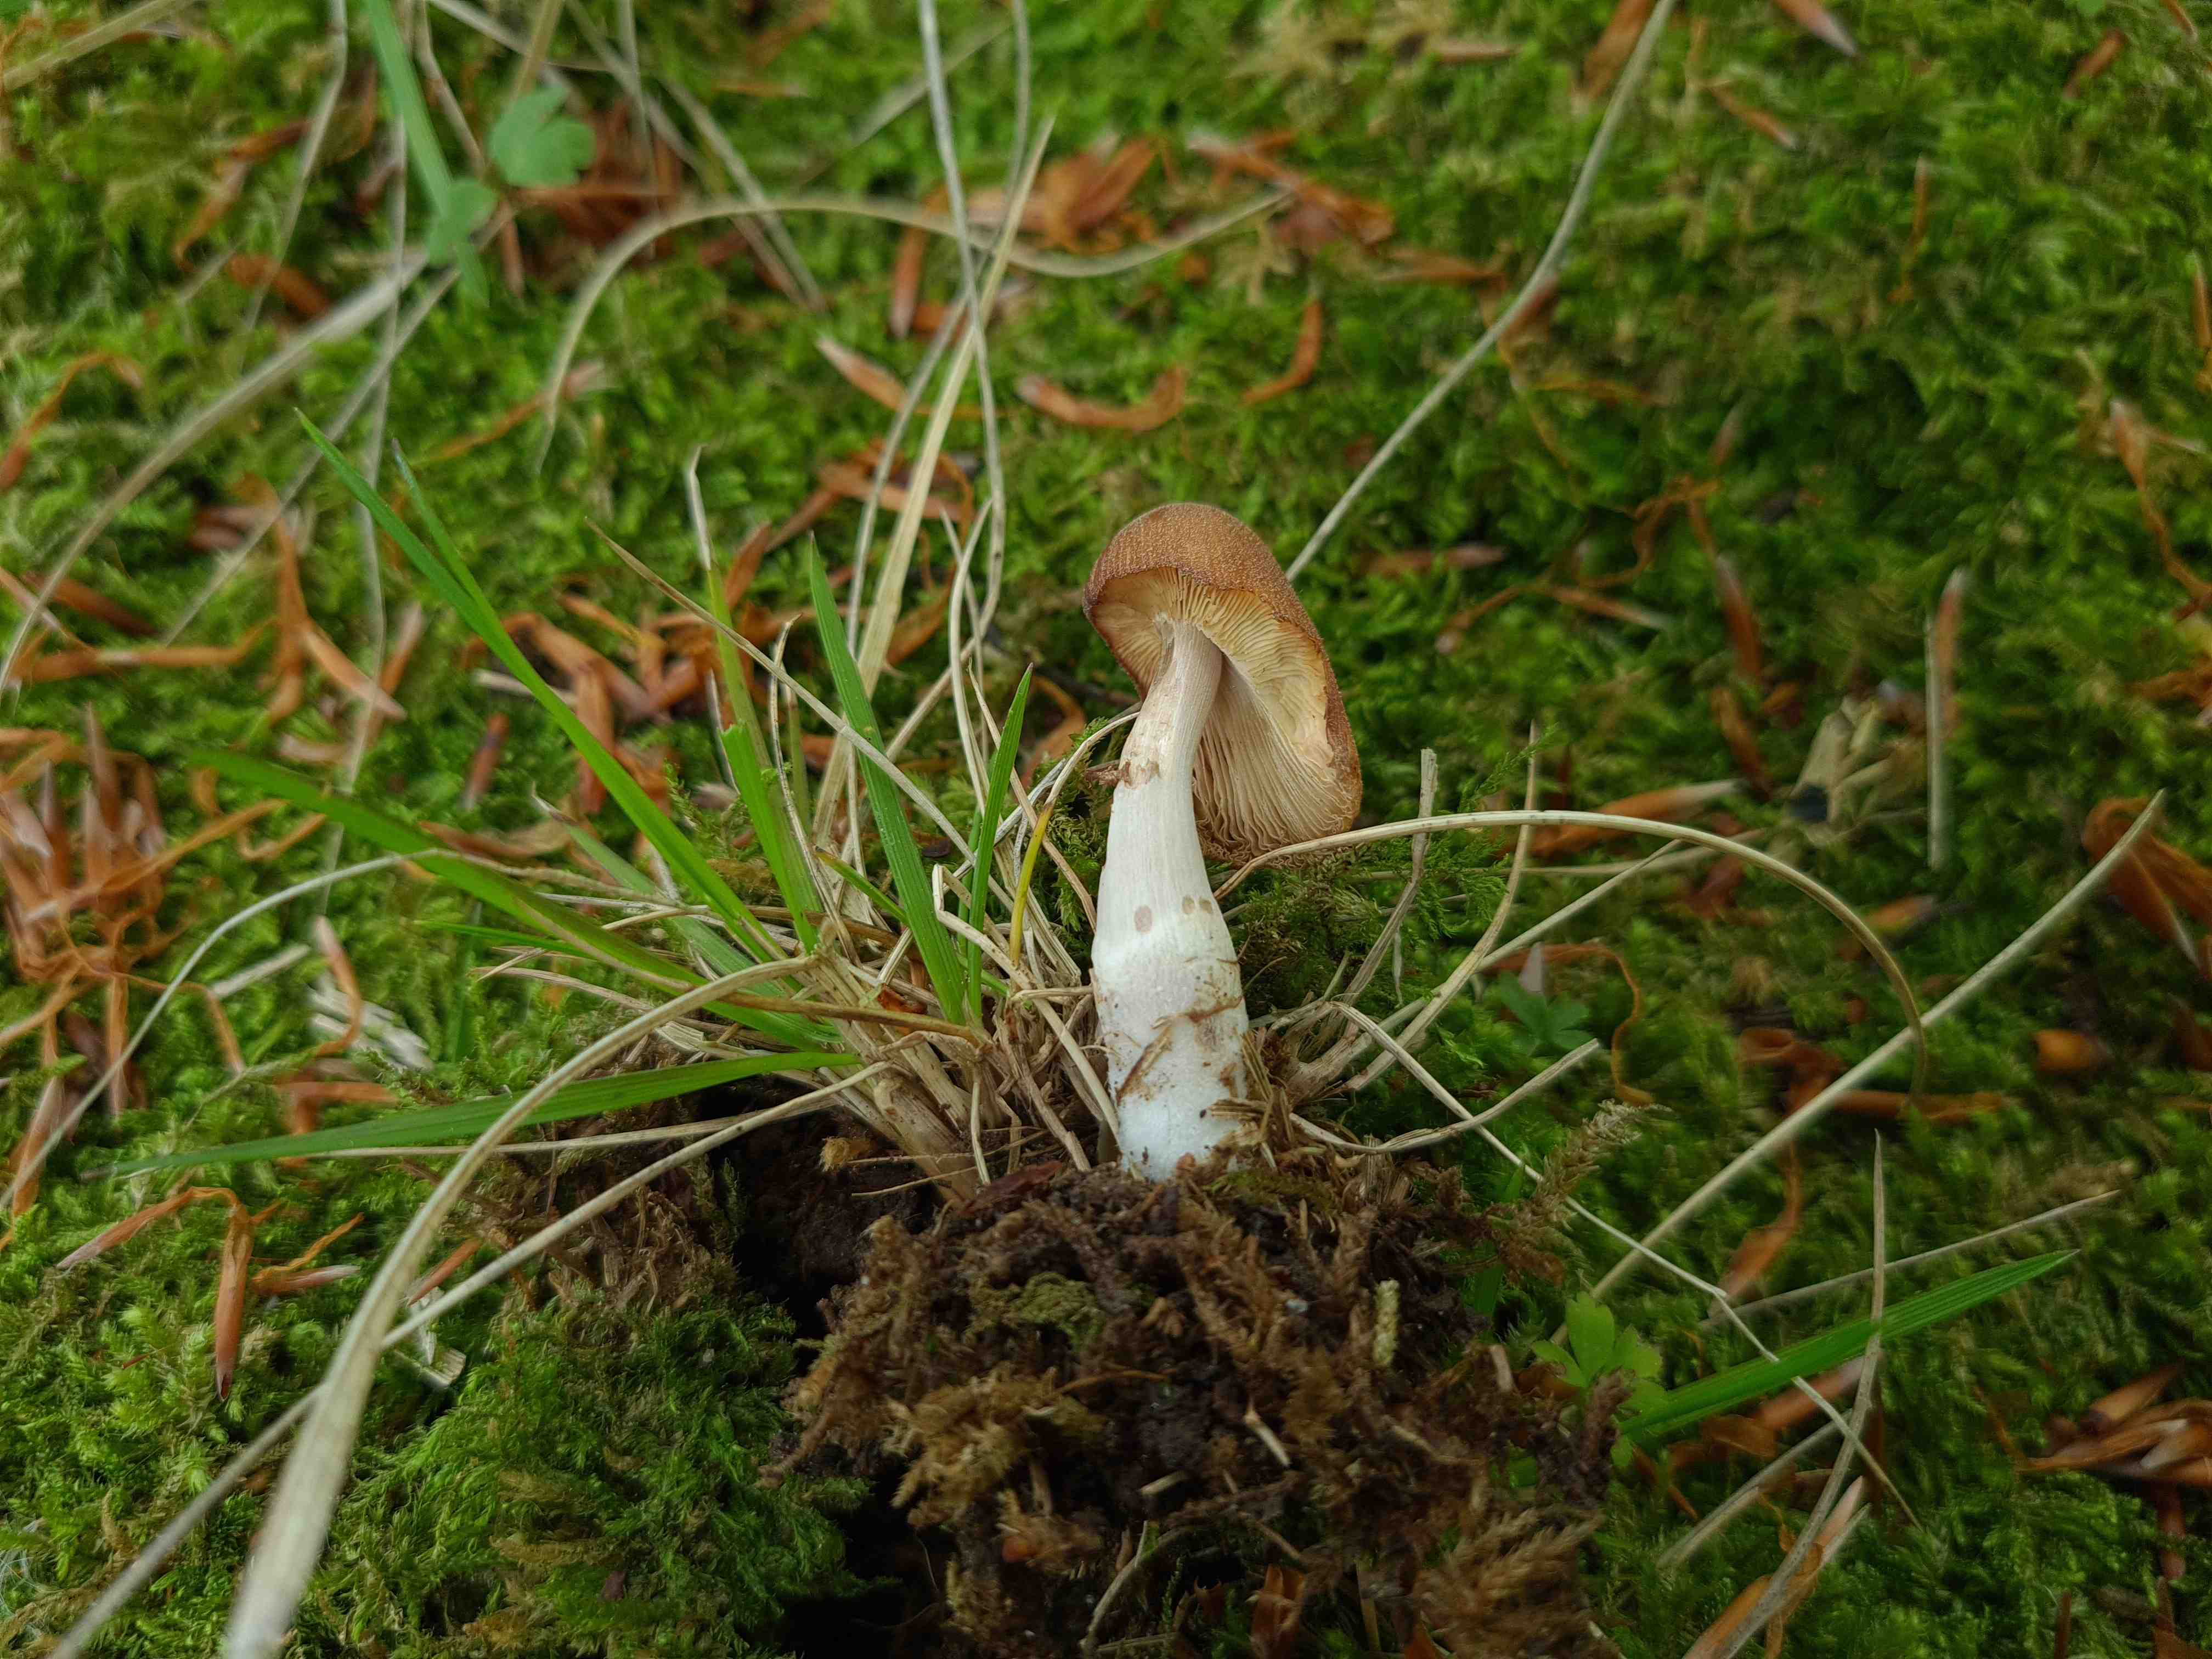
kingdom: Fungi
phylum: Basidiomycota
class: Agaricomycetes
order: Agaricales
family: Psathyrellaceae
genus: Coprinellus
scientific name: Coprinellus micaceus
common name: glimmer-blækhat
